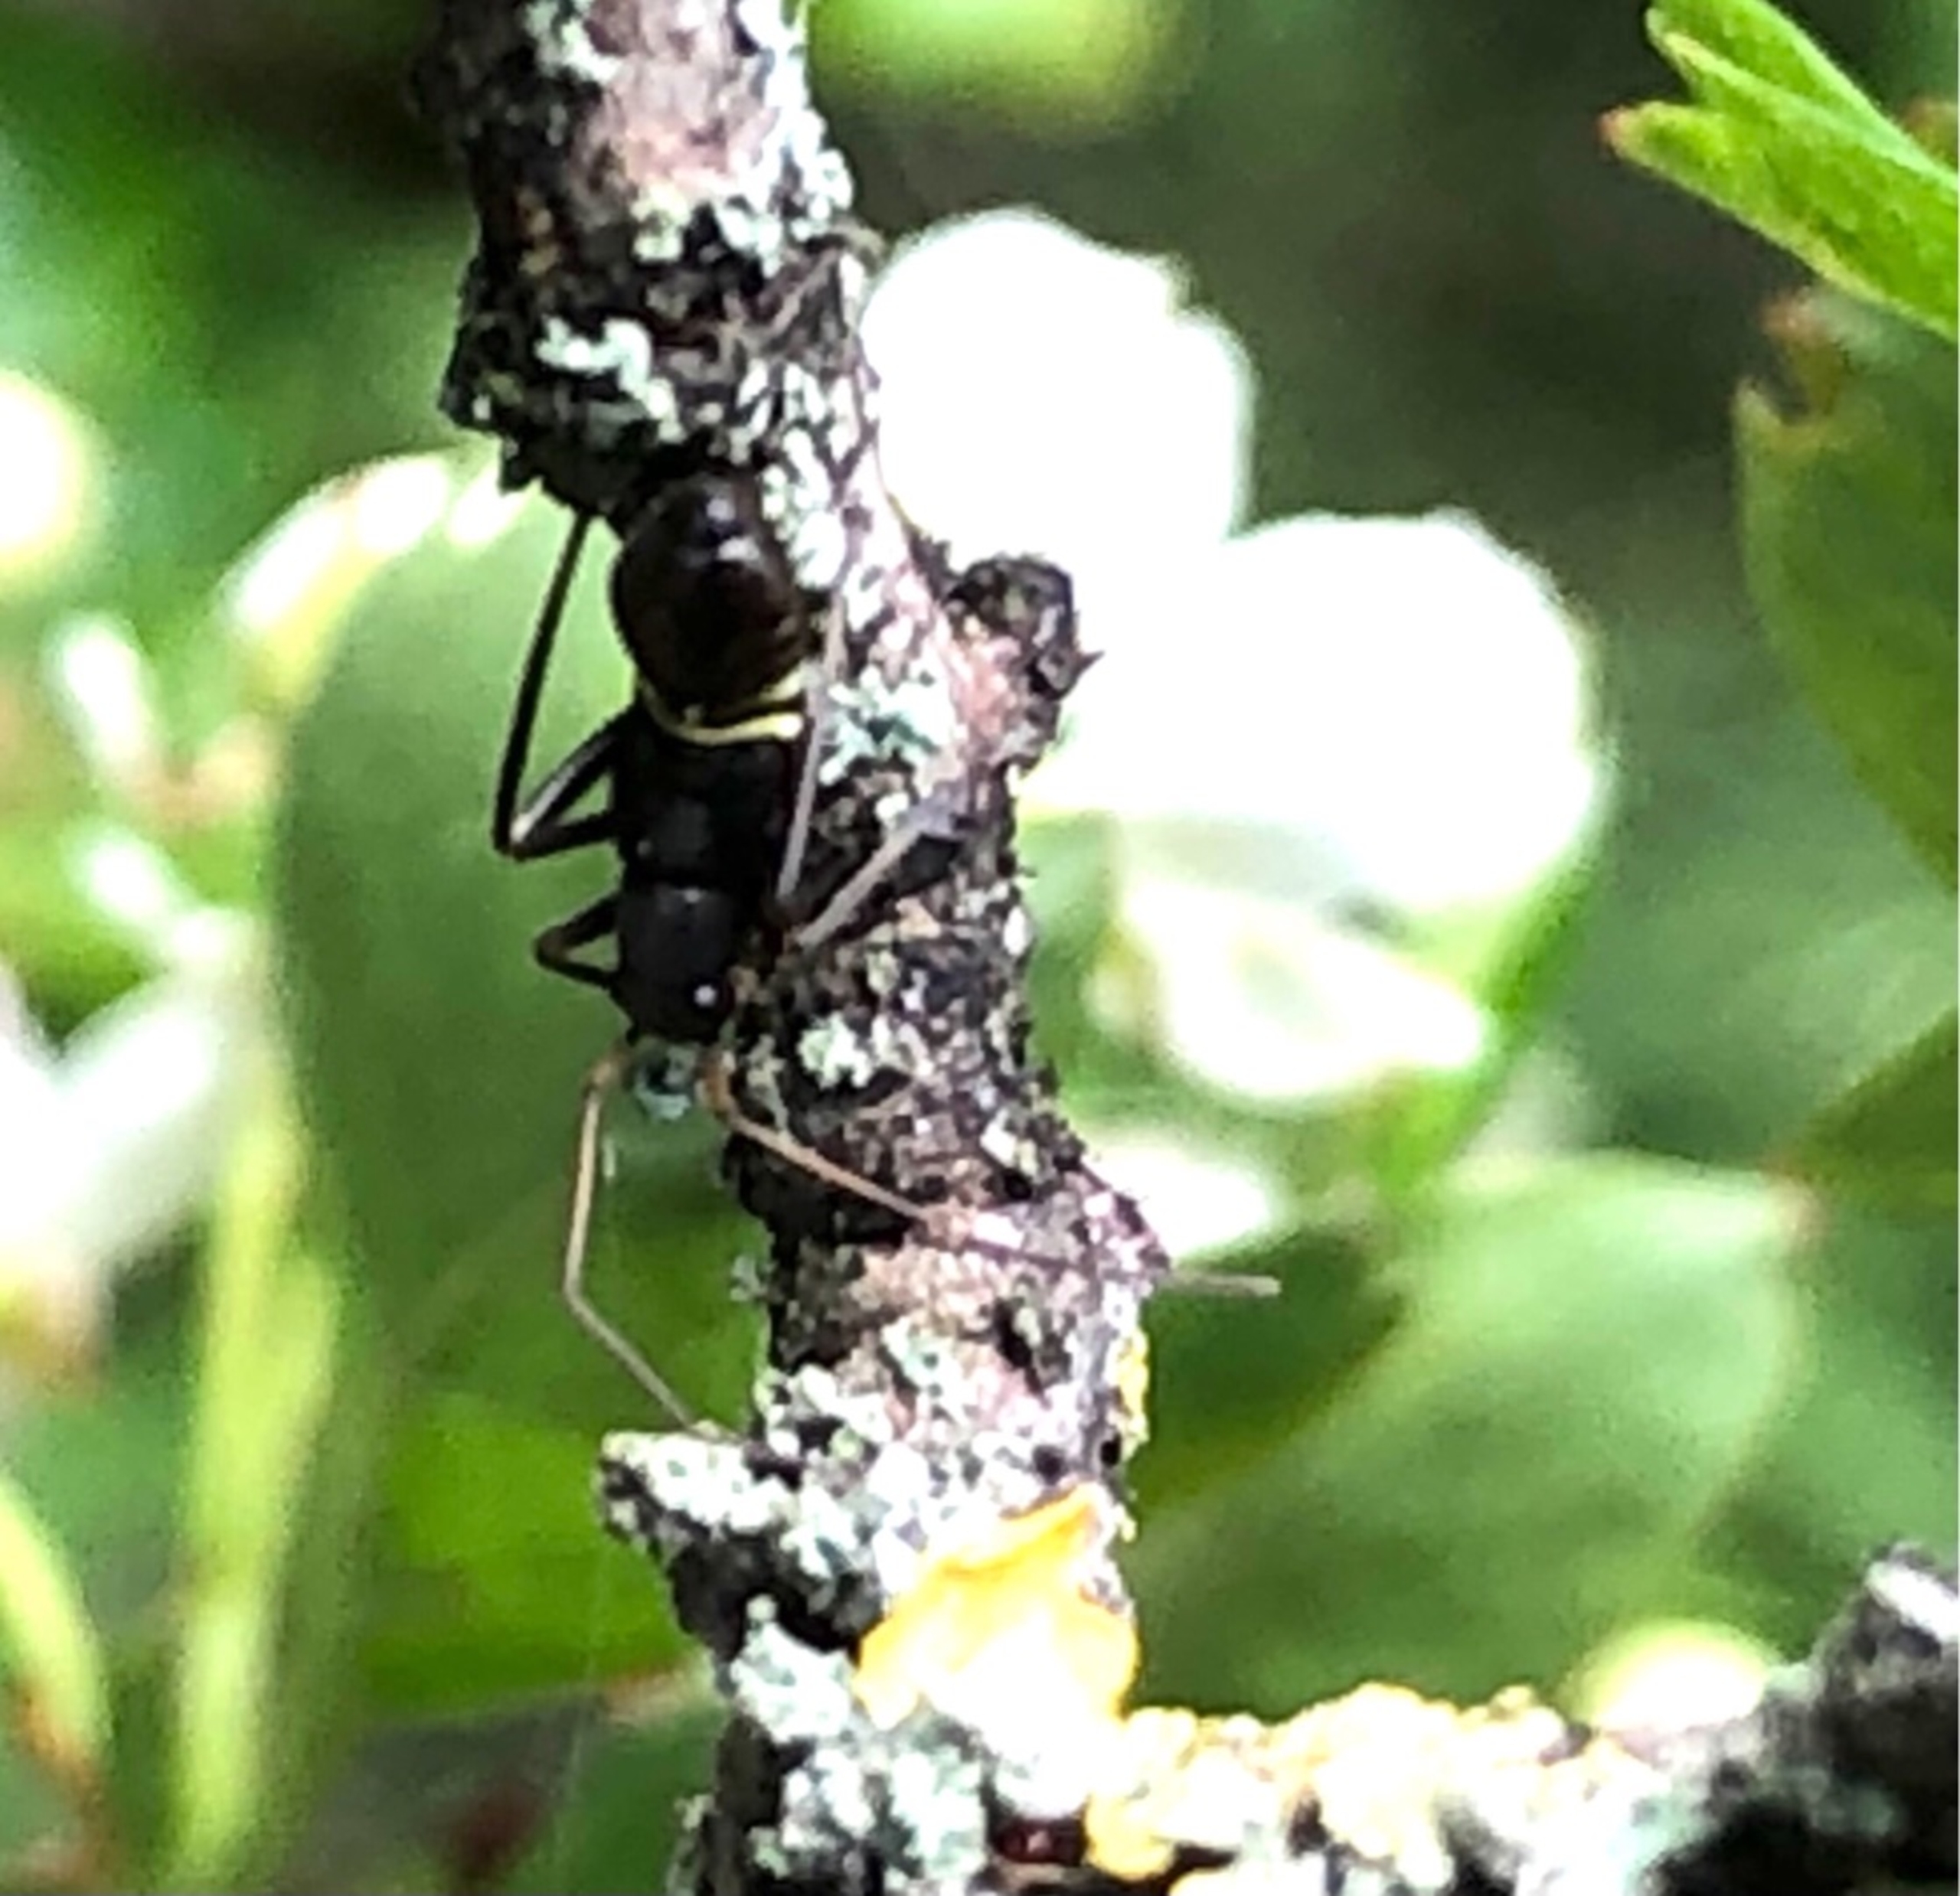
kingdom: Animalia
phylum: Arthropoda
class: Insecta
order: Hemiptera
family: Miridae
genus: Miris
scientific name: Miris striatus
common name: Gulstribet egetæge
